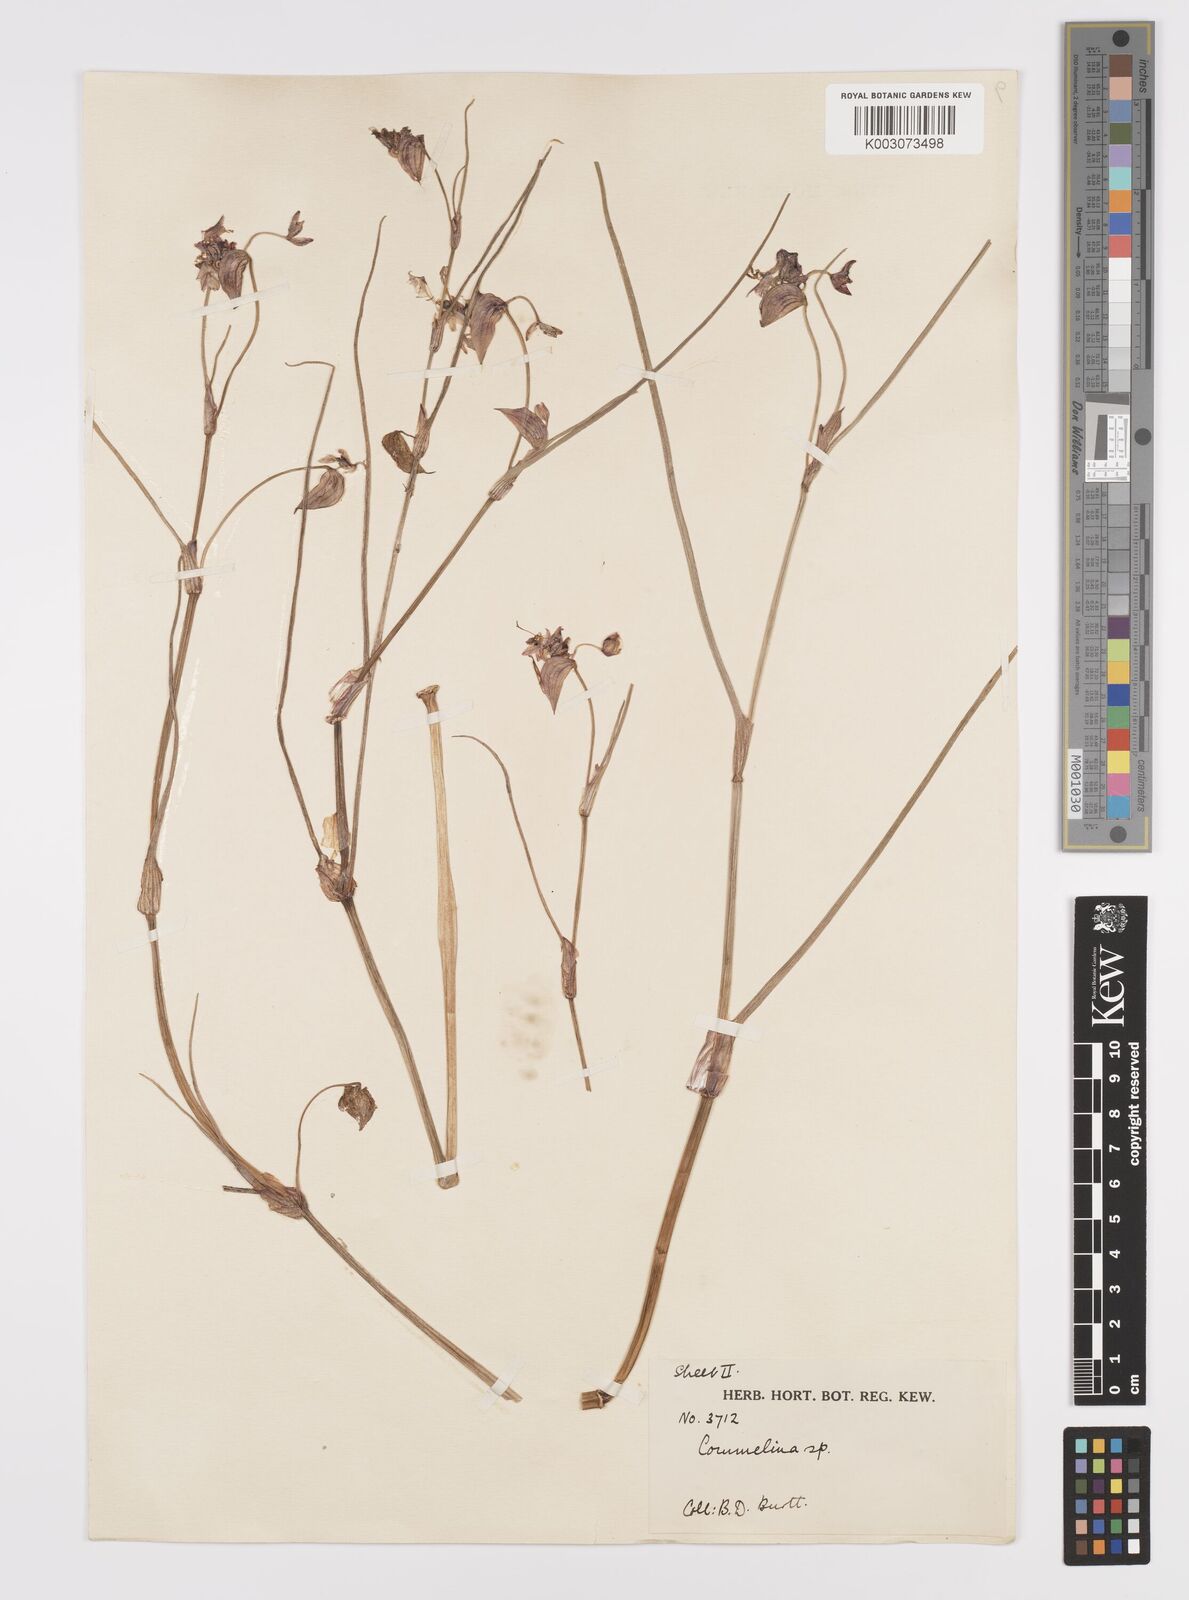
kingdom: Plantae
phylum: Tracheophyta
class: Liliopsida
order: Commelinales
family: Commelinaceae
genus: Commelina
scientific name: Commelina fluviatilis
